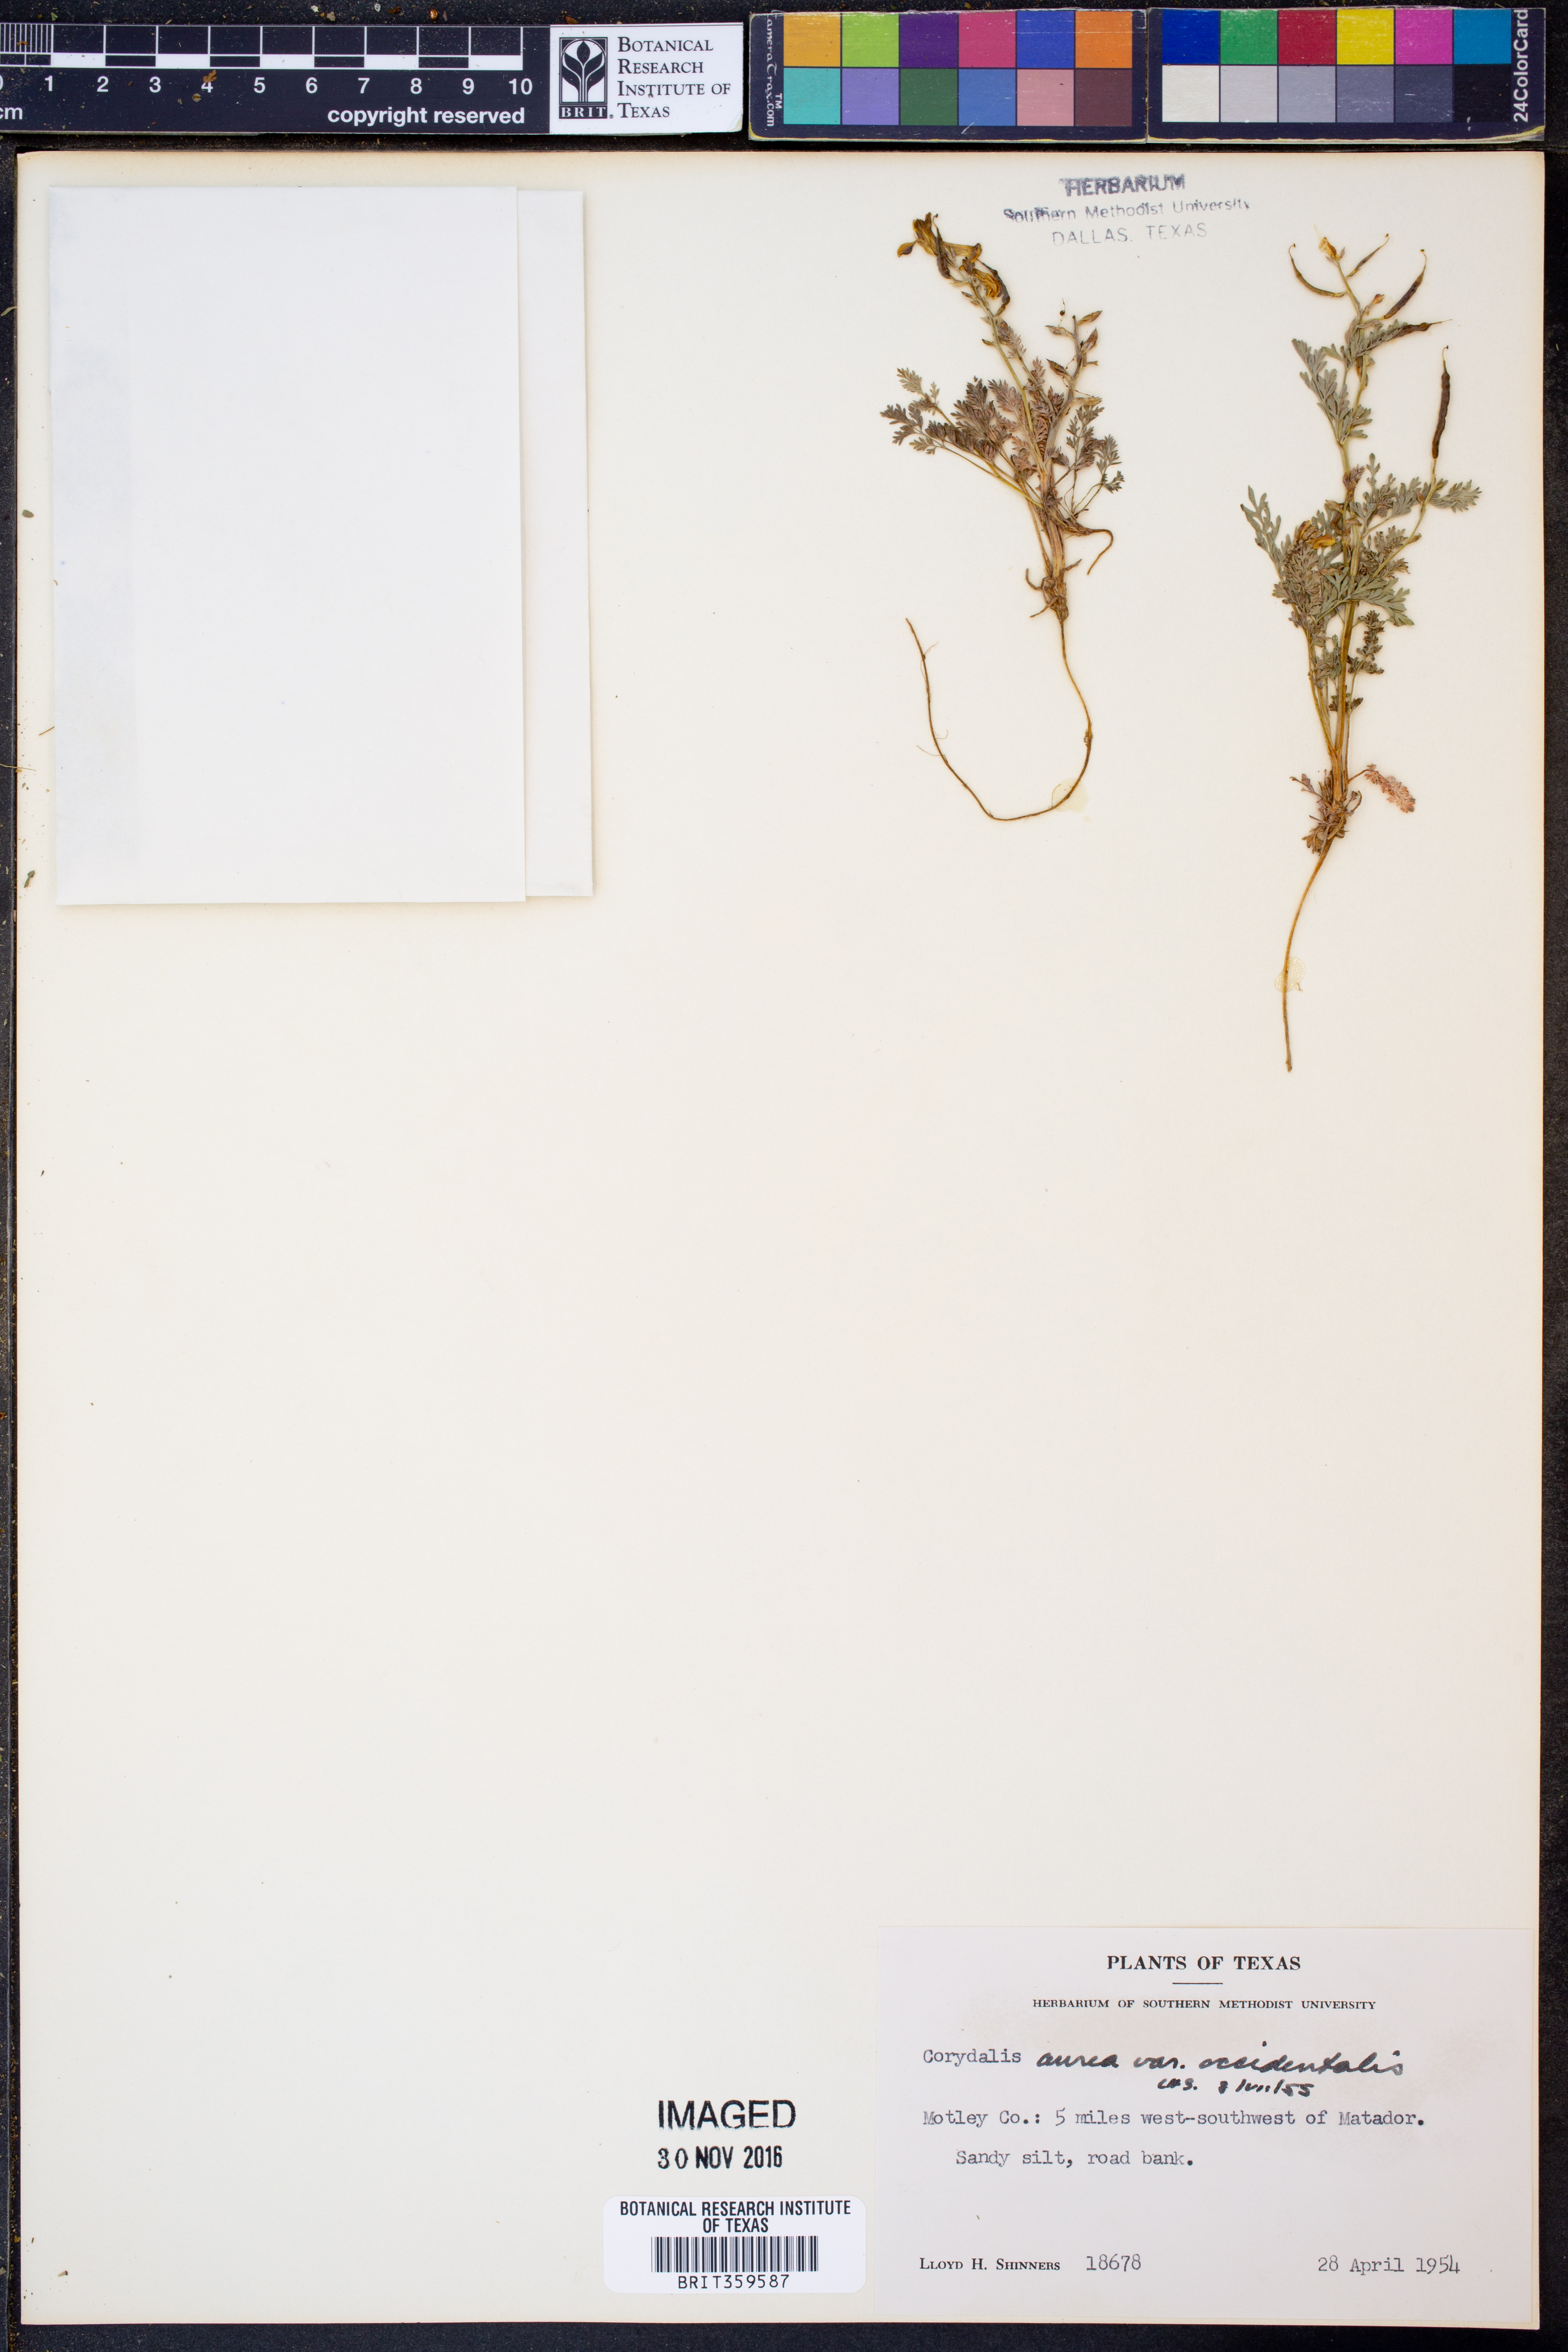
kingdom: Plantae
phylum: Tracheophyta
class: Magnoliopsida
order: Ranunculales
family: Papaveraceae
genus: Corydalis
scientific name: Corydalis curvisiliqua
